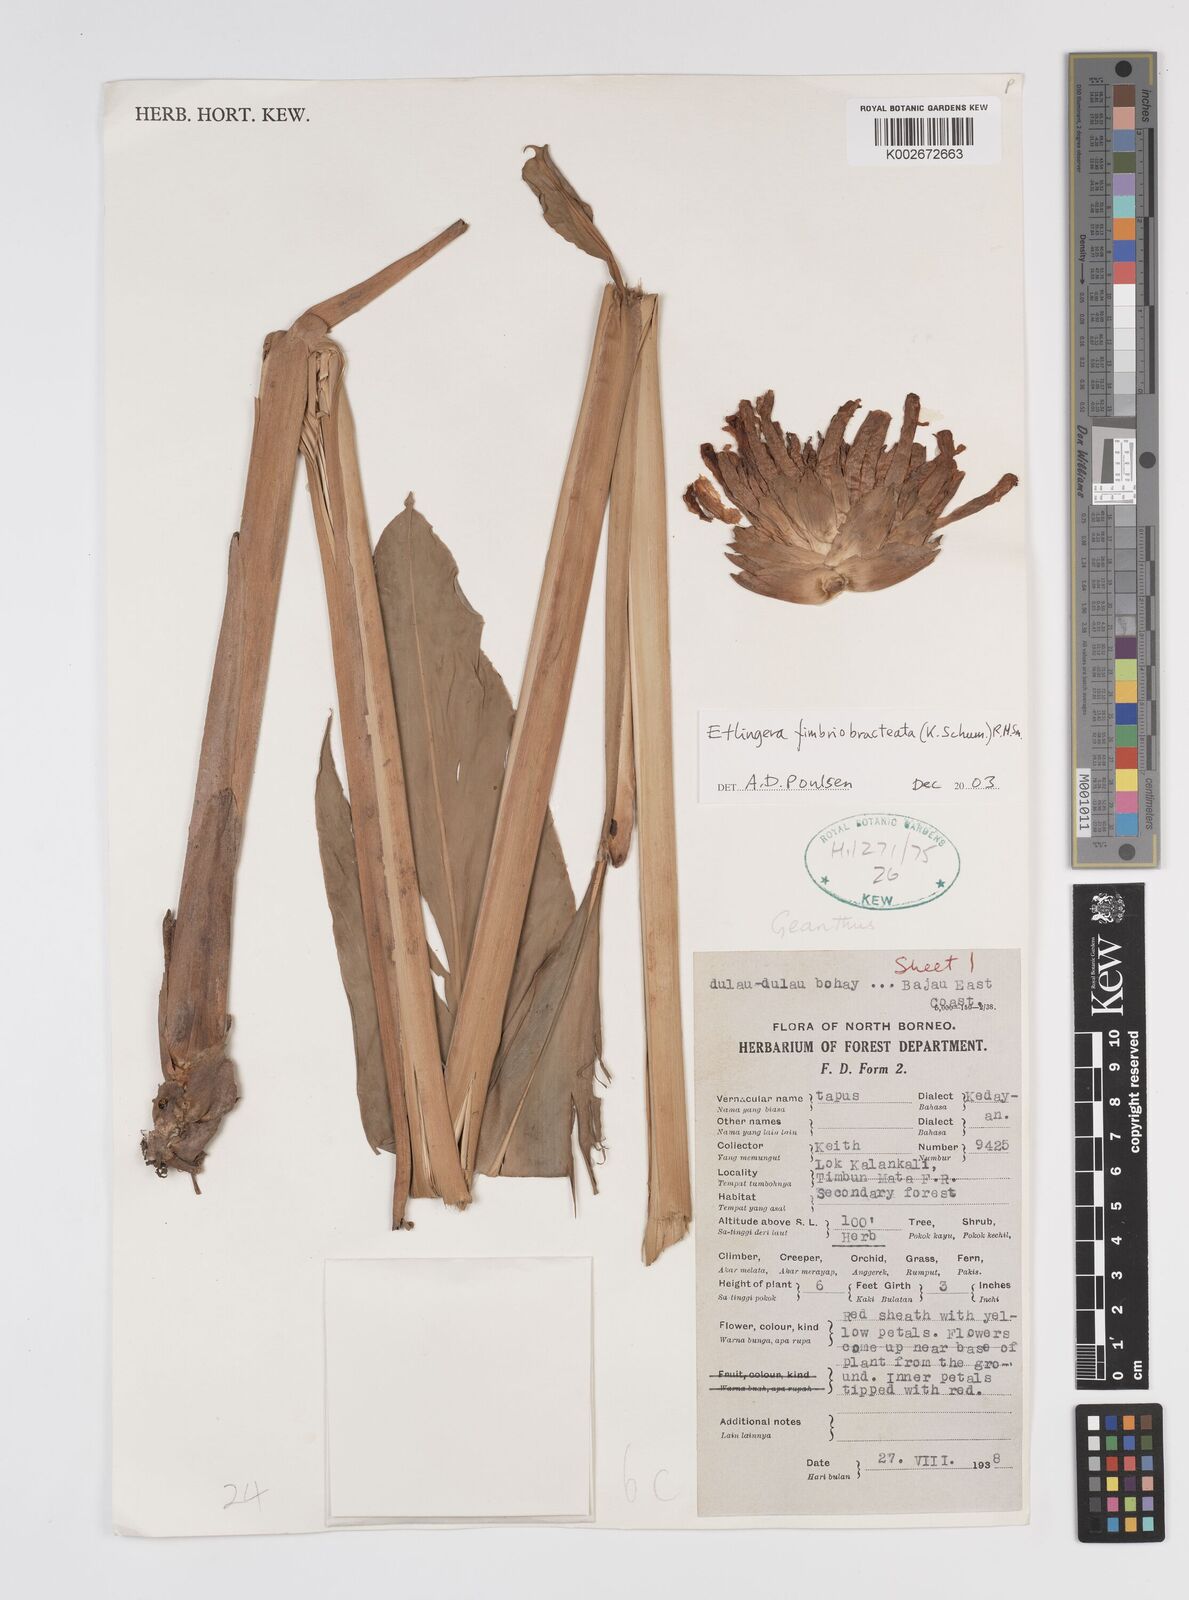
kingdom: Plantae
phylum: Tracheophyta
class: Liliopsida
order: Zingiberales
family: Zingiberaceae
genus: Etlingera
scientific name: Etlingera fimbriobracteata
